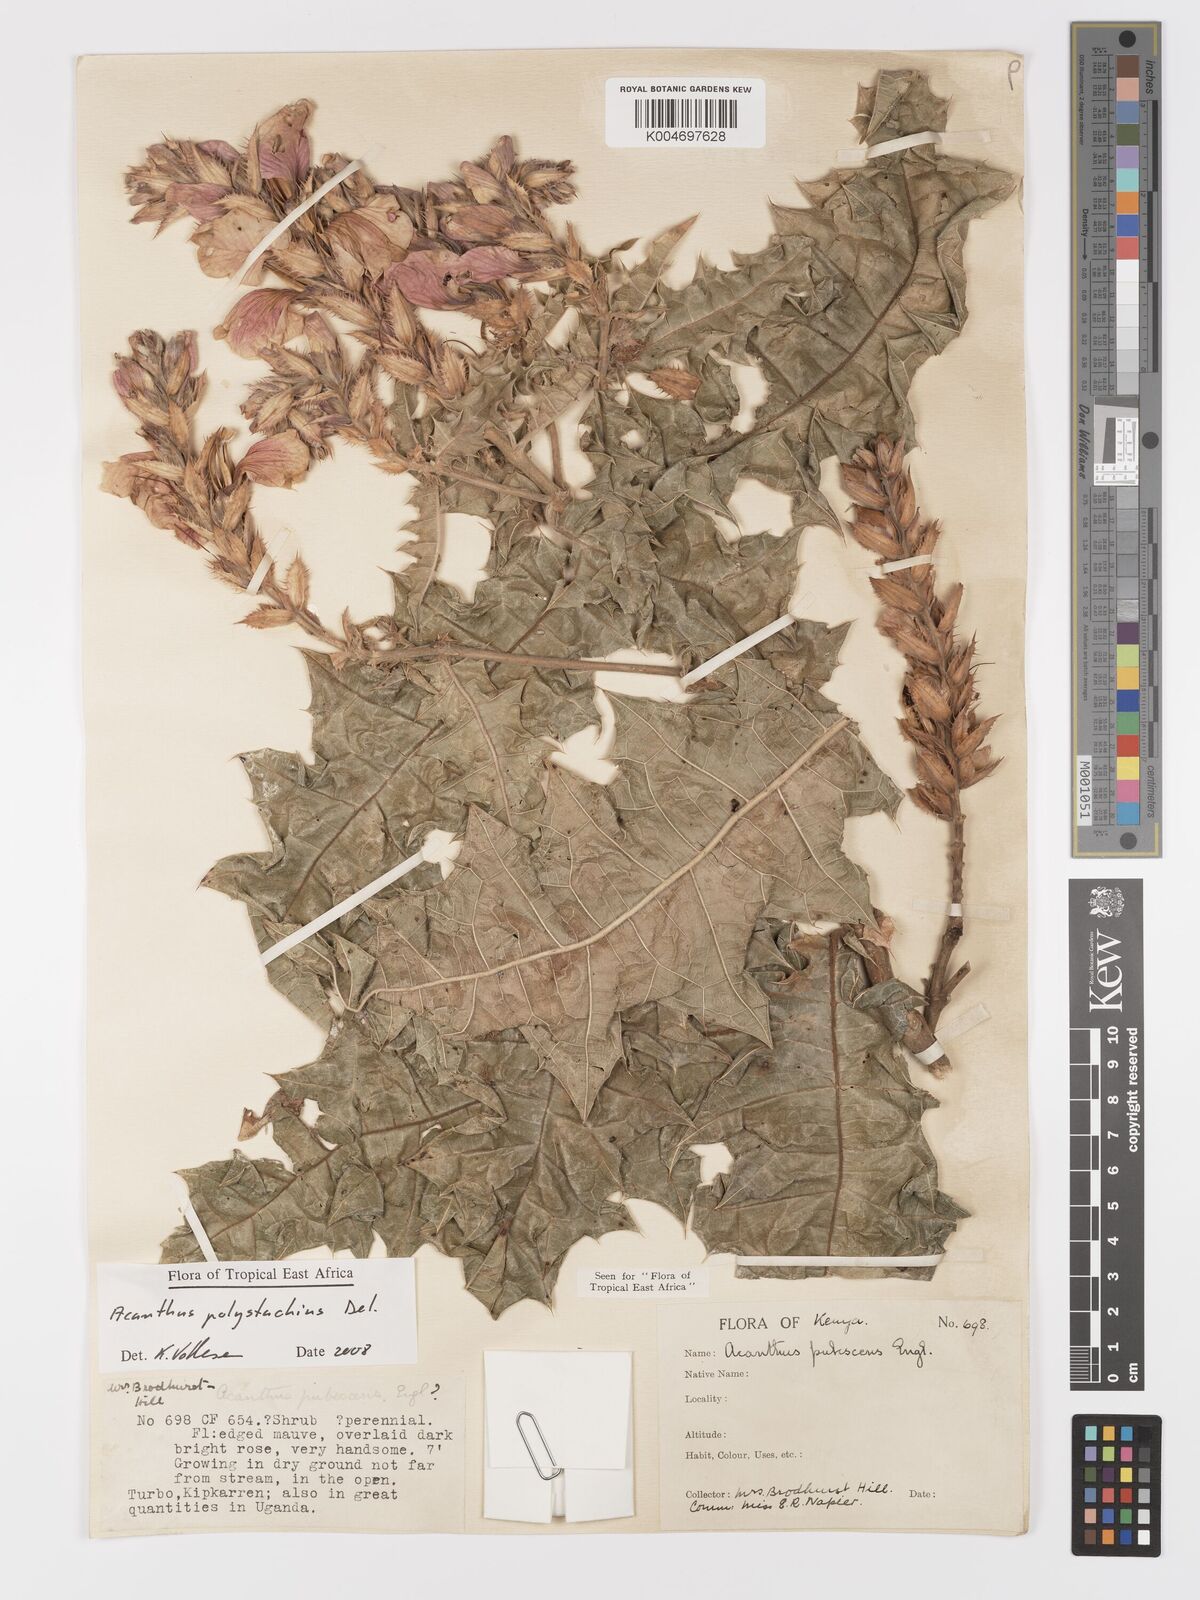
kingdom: Plantae
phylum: Tracheophyta
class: Magnoliopsida
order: Lamiales
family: Acanthaceae
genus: Acanthus
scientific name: Acanthus polystachyus
